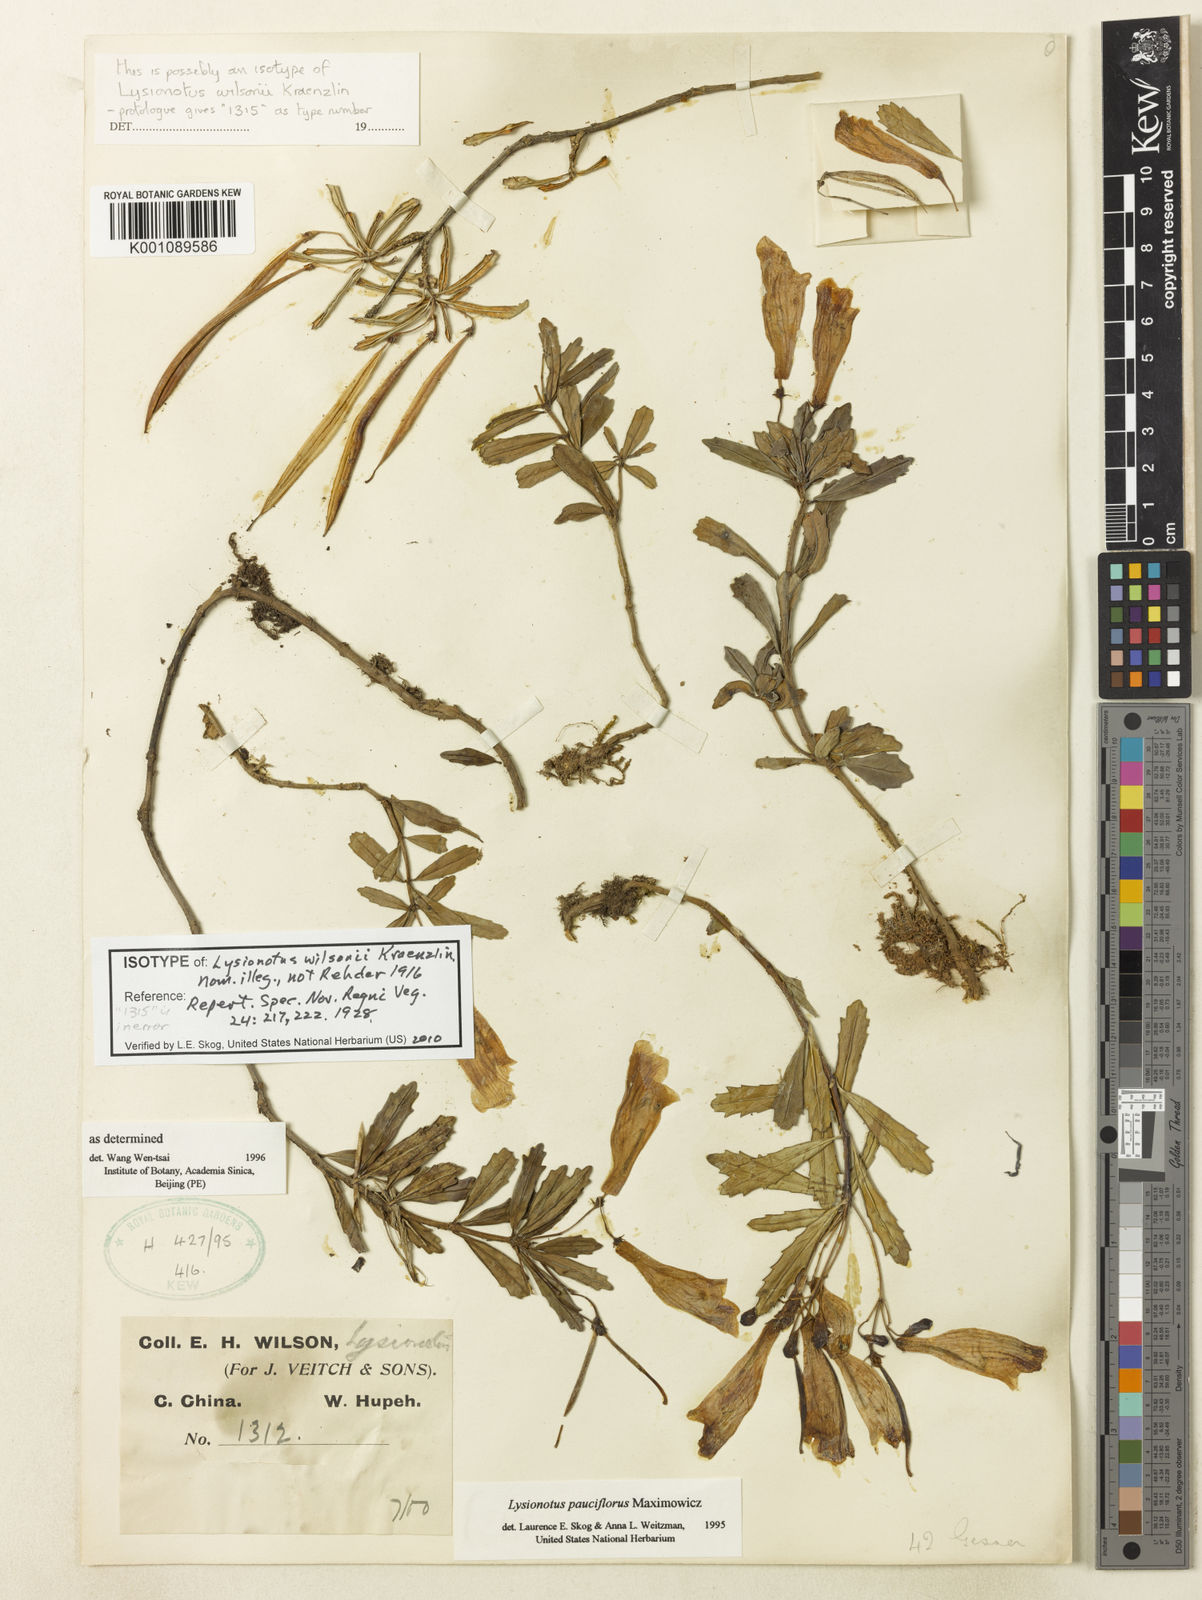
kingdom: Plantae
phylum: Tracheophyta
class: Magnoliopsida
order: Lamiales
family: Gesneriaceae
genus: Lysionotus
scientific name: Lysionotus pauciflorus
